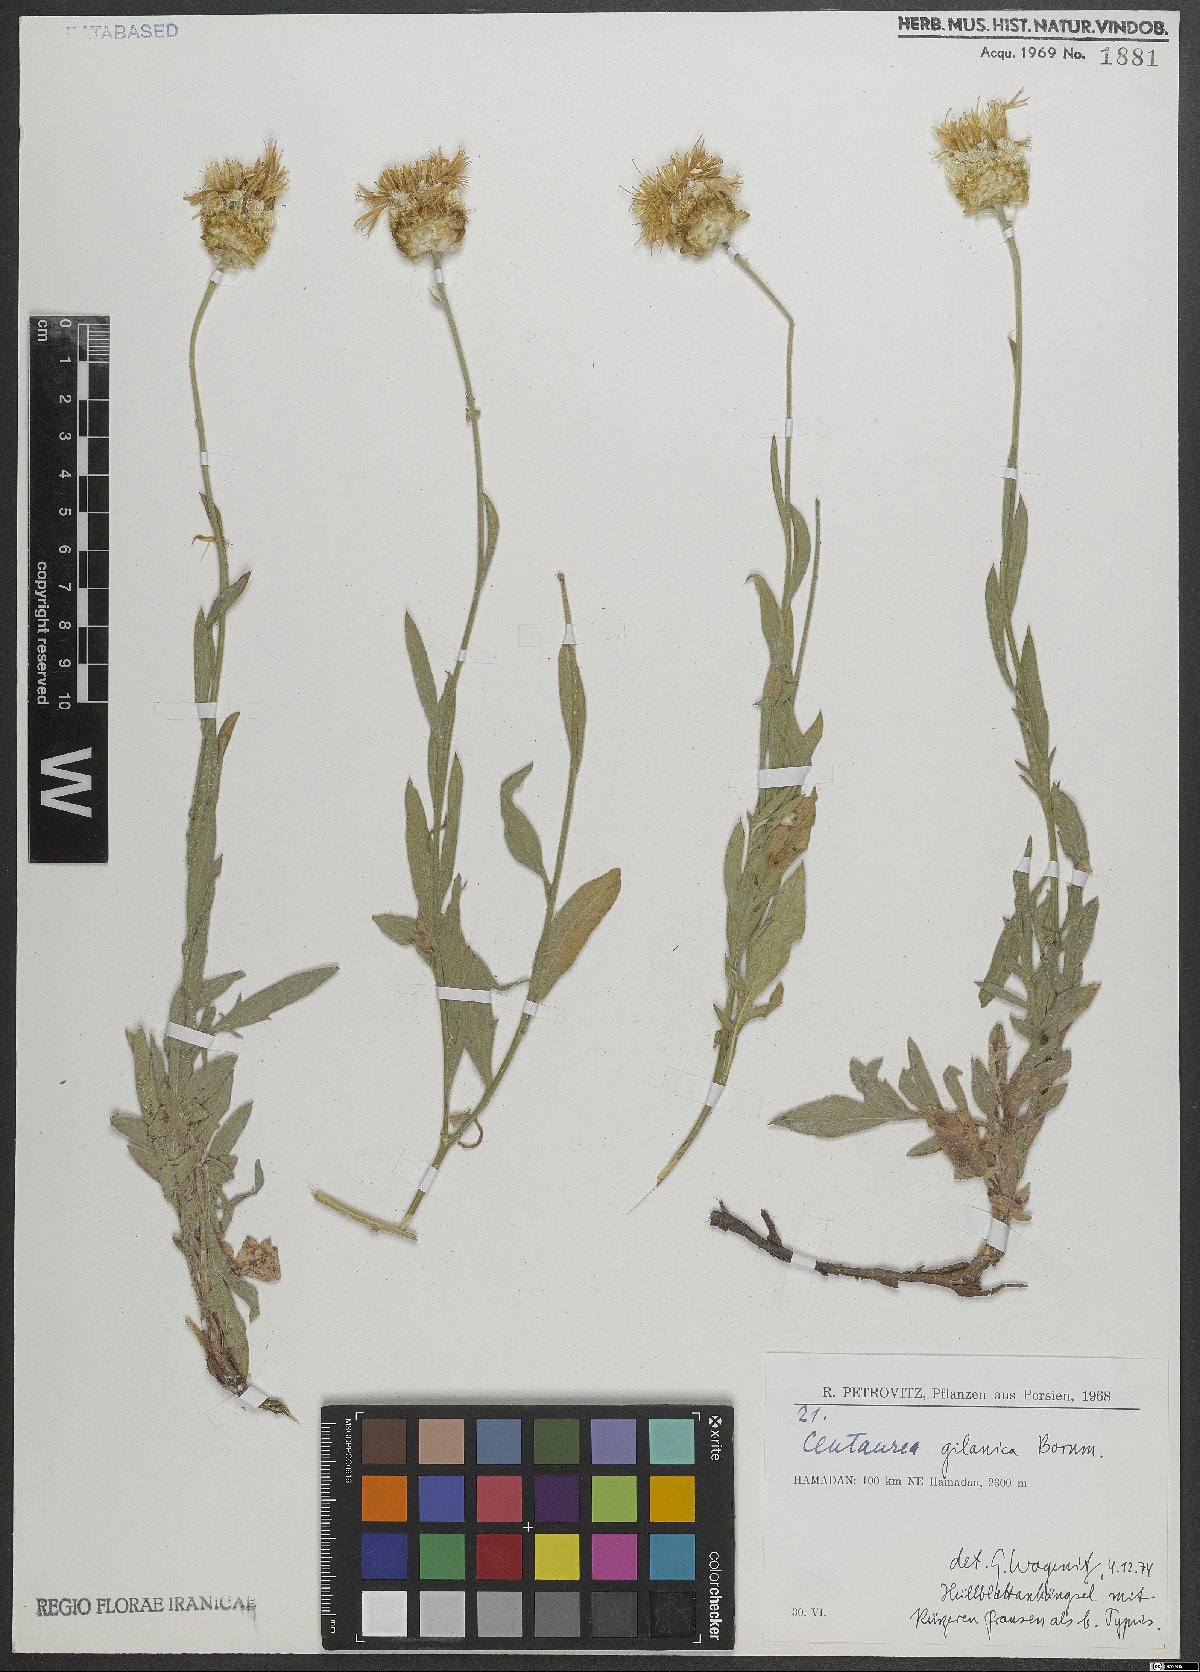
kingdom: Plantae
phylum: Tracheophyta
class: Magnoliopsida
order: Asterales
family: Asteraceae
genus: Psephellus
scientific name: Psephellus gilanicus
